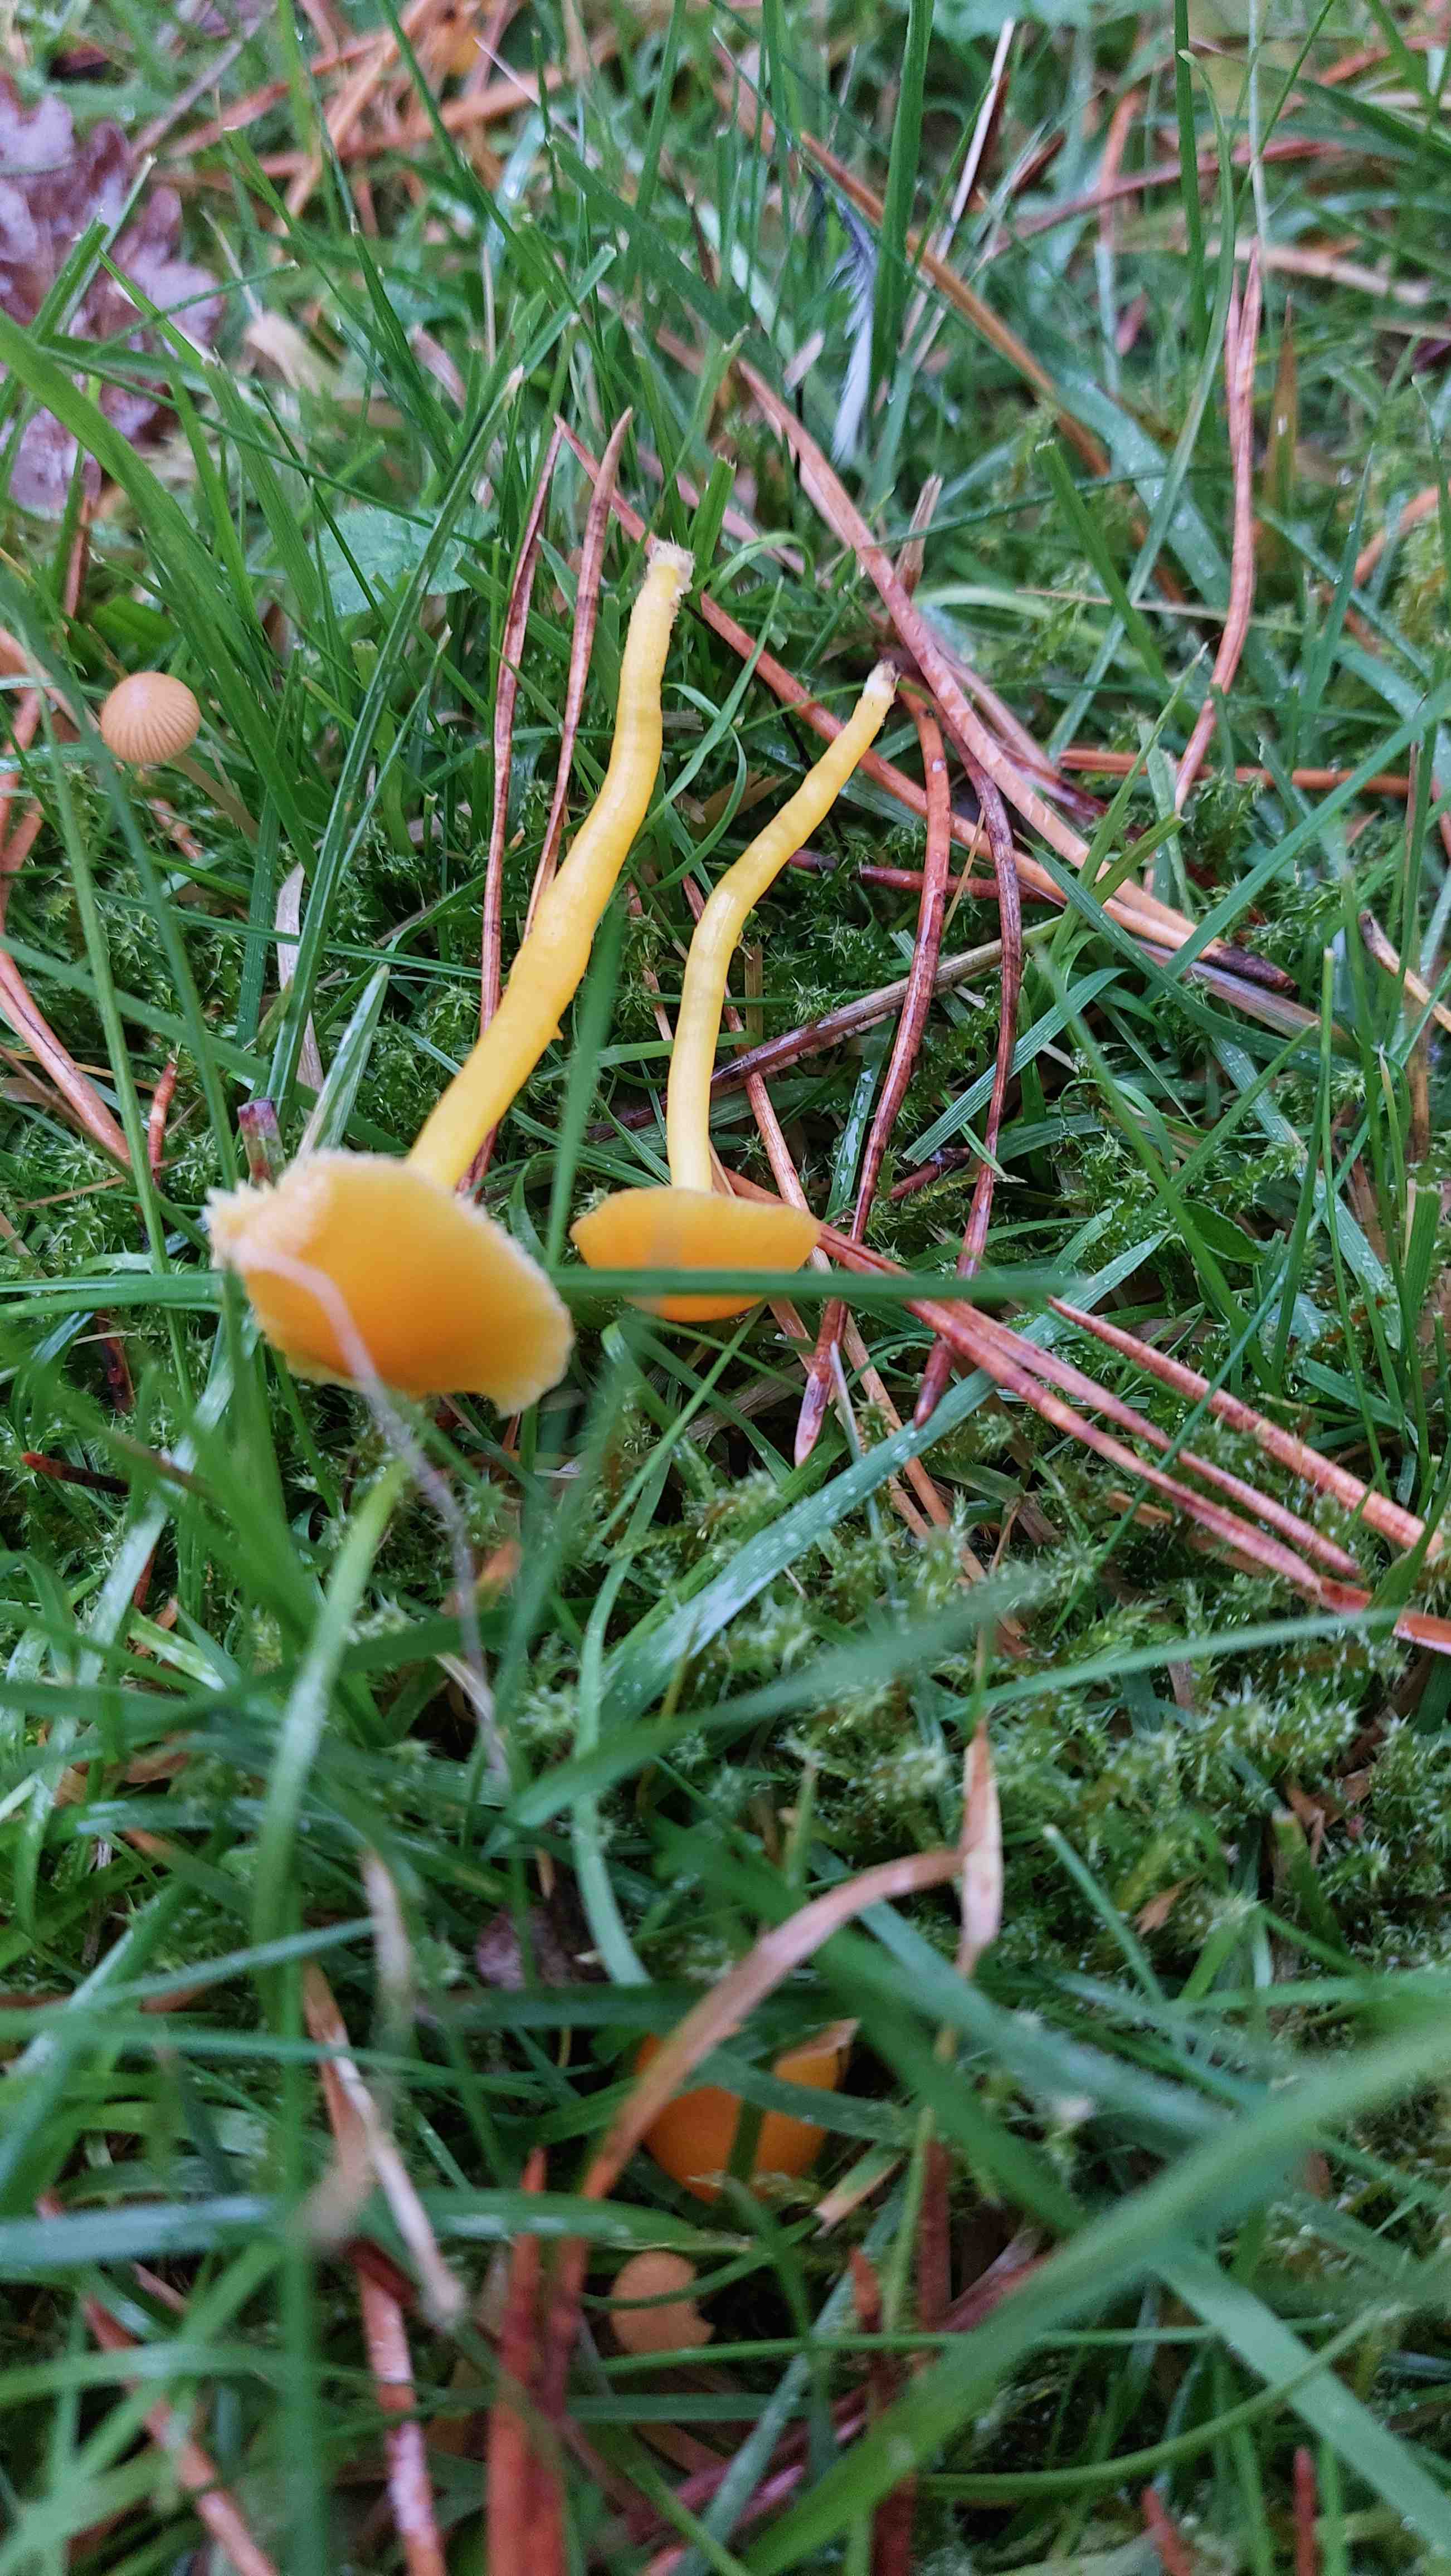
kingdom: Fungi
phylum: Basidiomycota
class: Agaricomycetes
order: Agaricales
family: Hygrophoraceae
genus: Hygrocybe
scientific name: Hygrocybe ceracea
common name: voksgul vokshat
